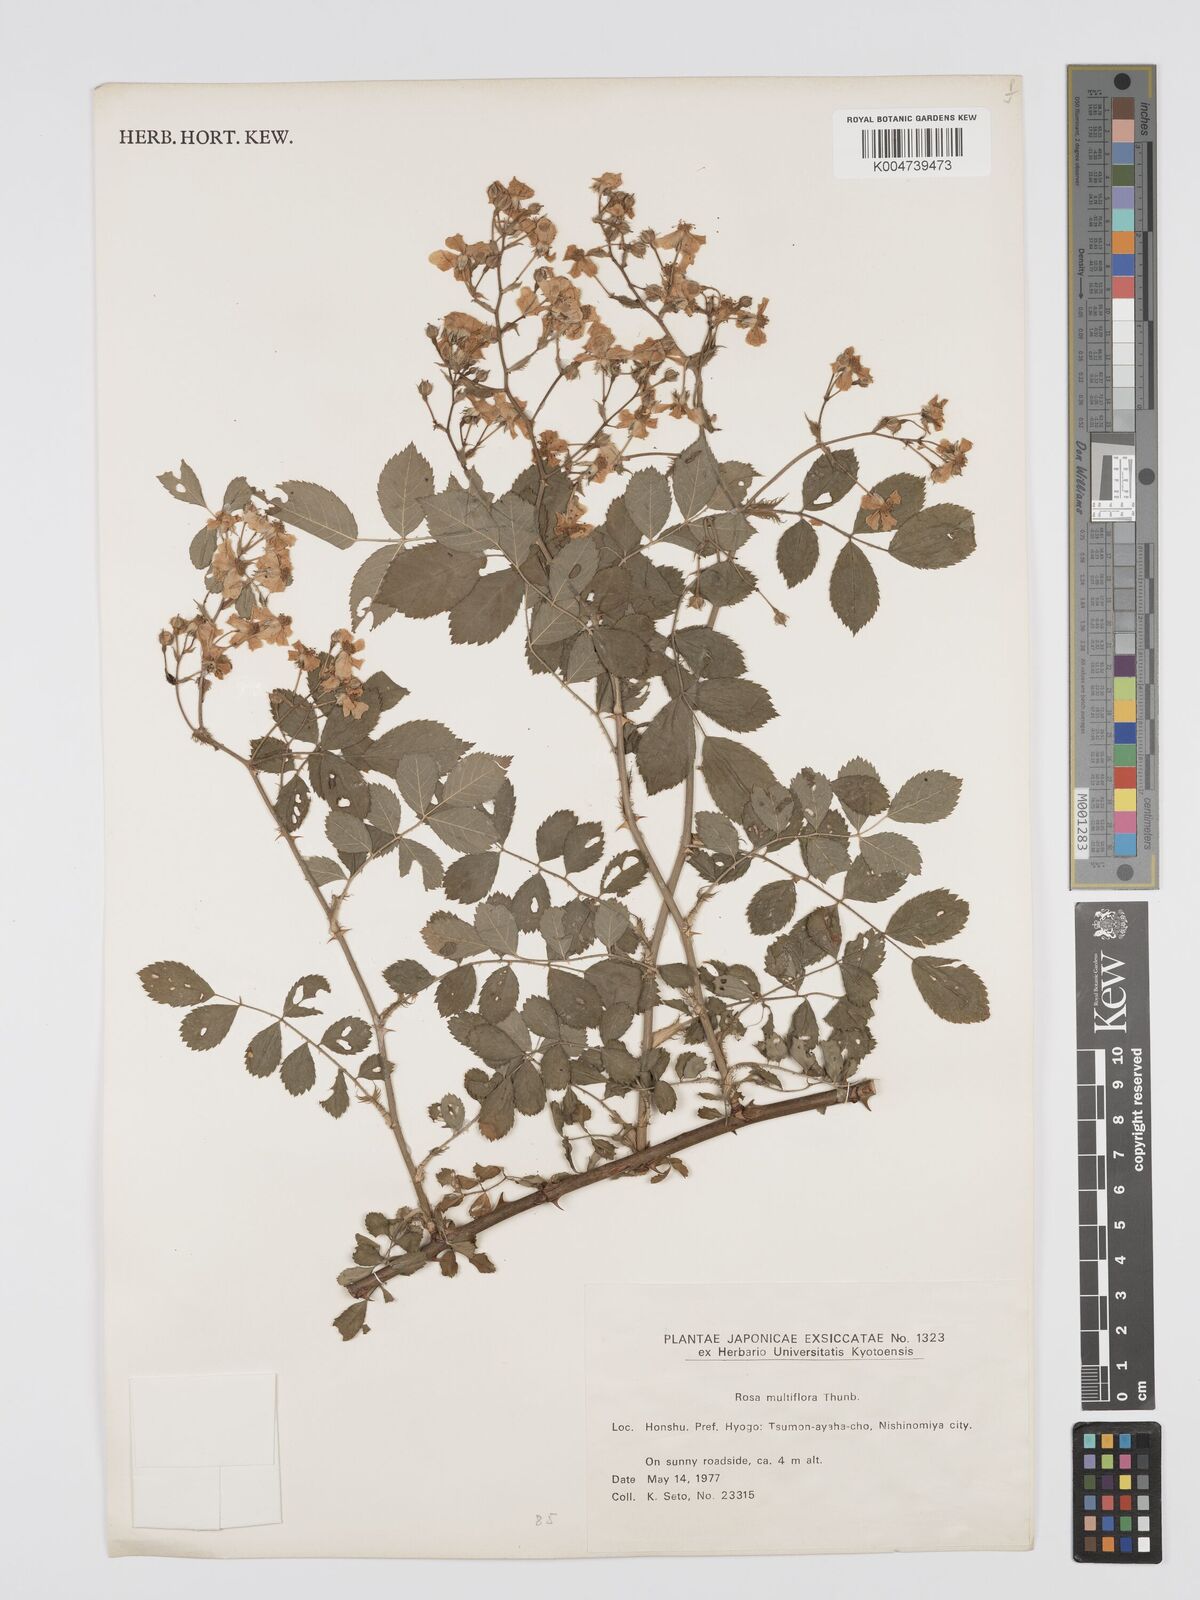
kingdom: Plantae
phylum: Tracheophyta
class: Magnoliopsida
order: Rosales
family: Rosaceae
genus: Rosa
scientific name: Rosa
